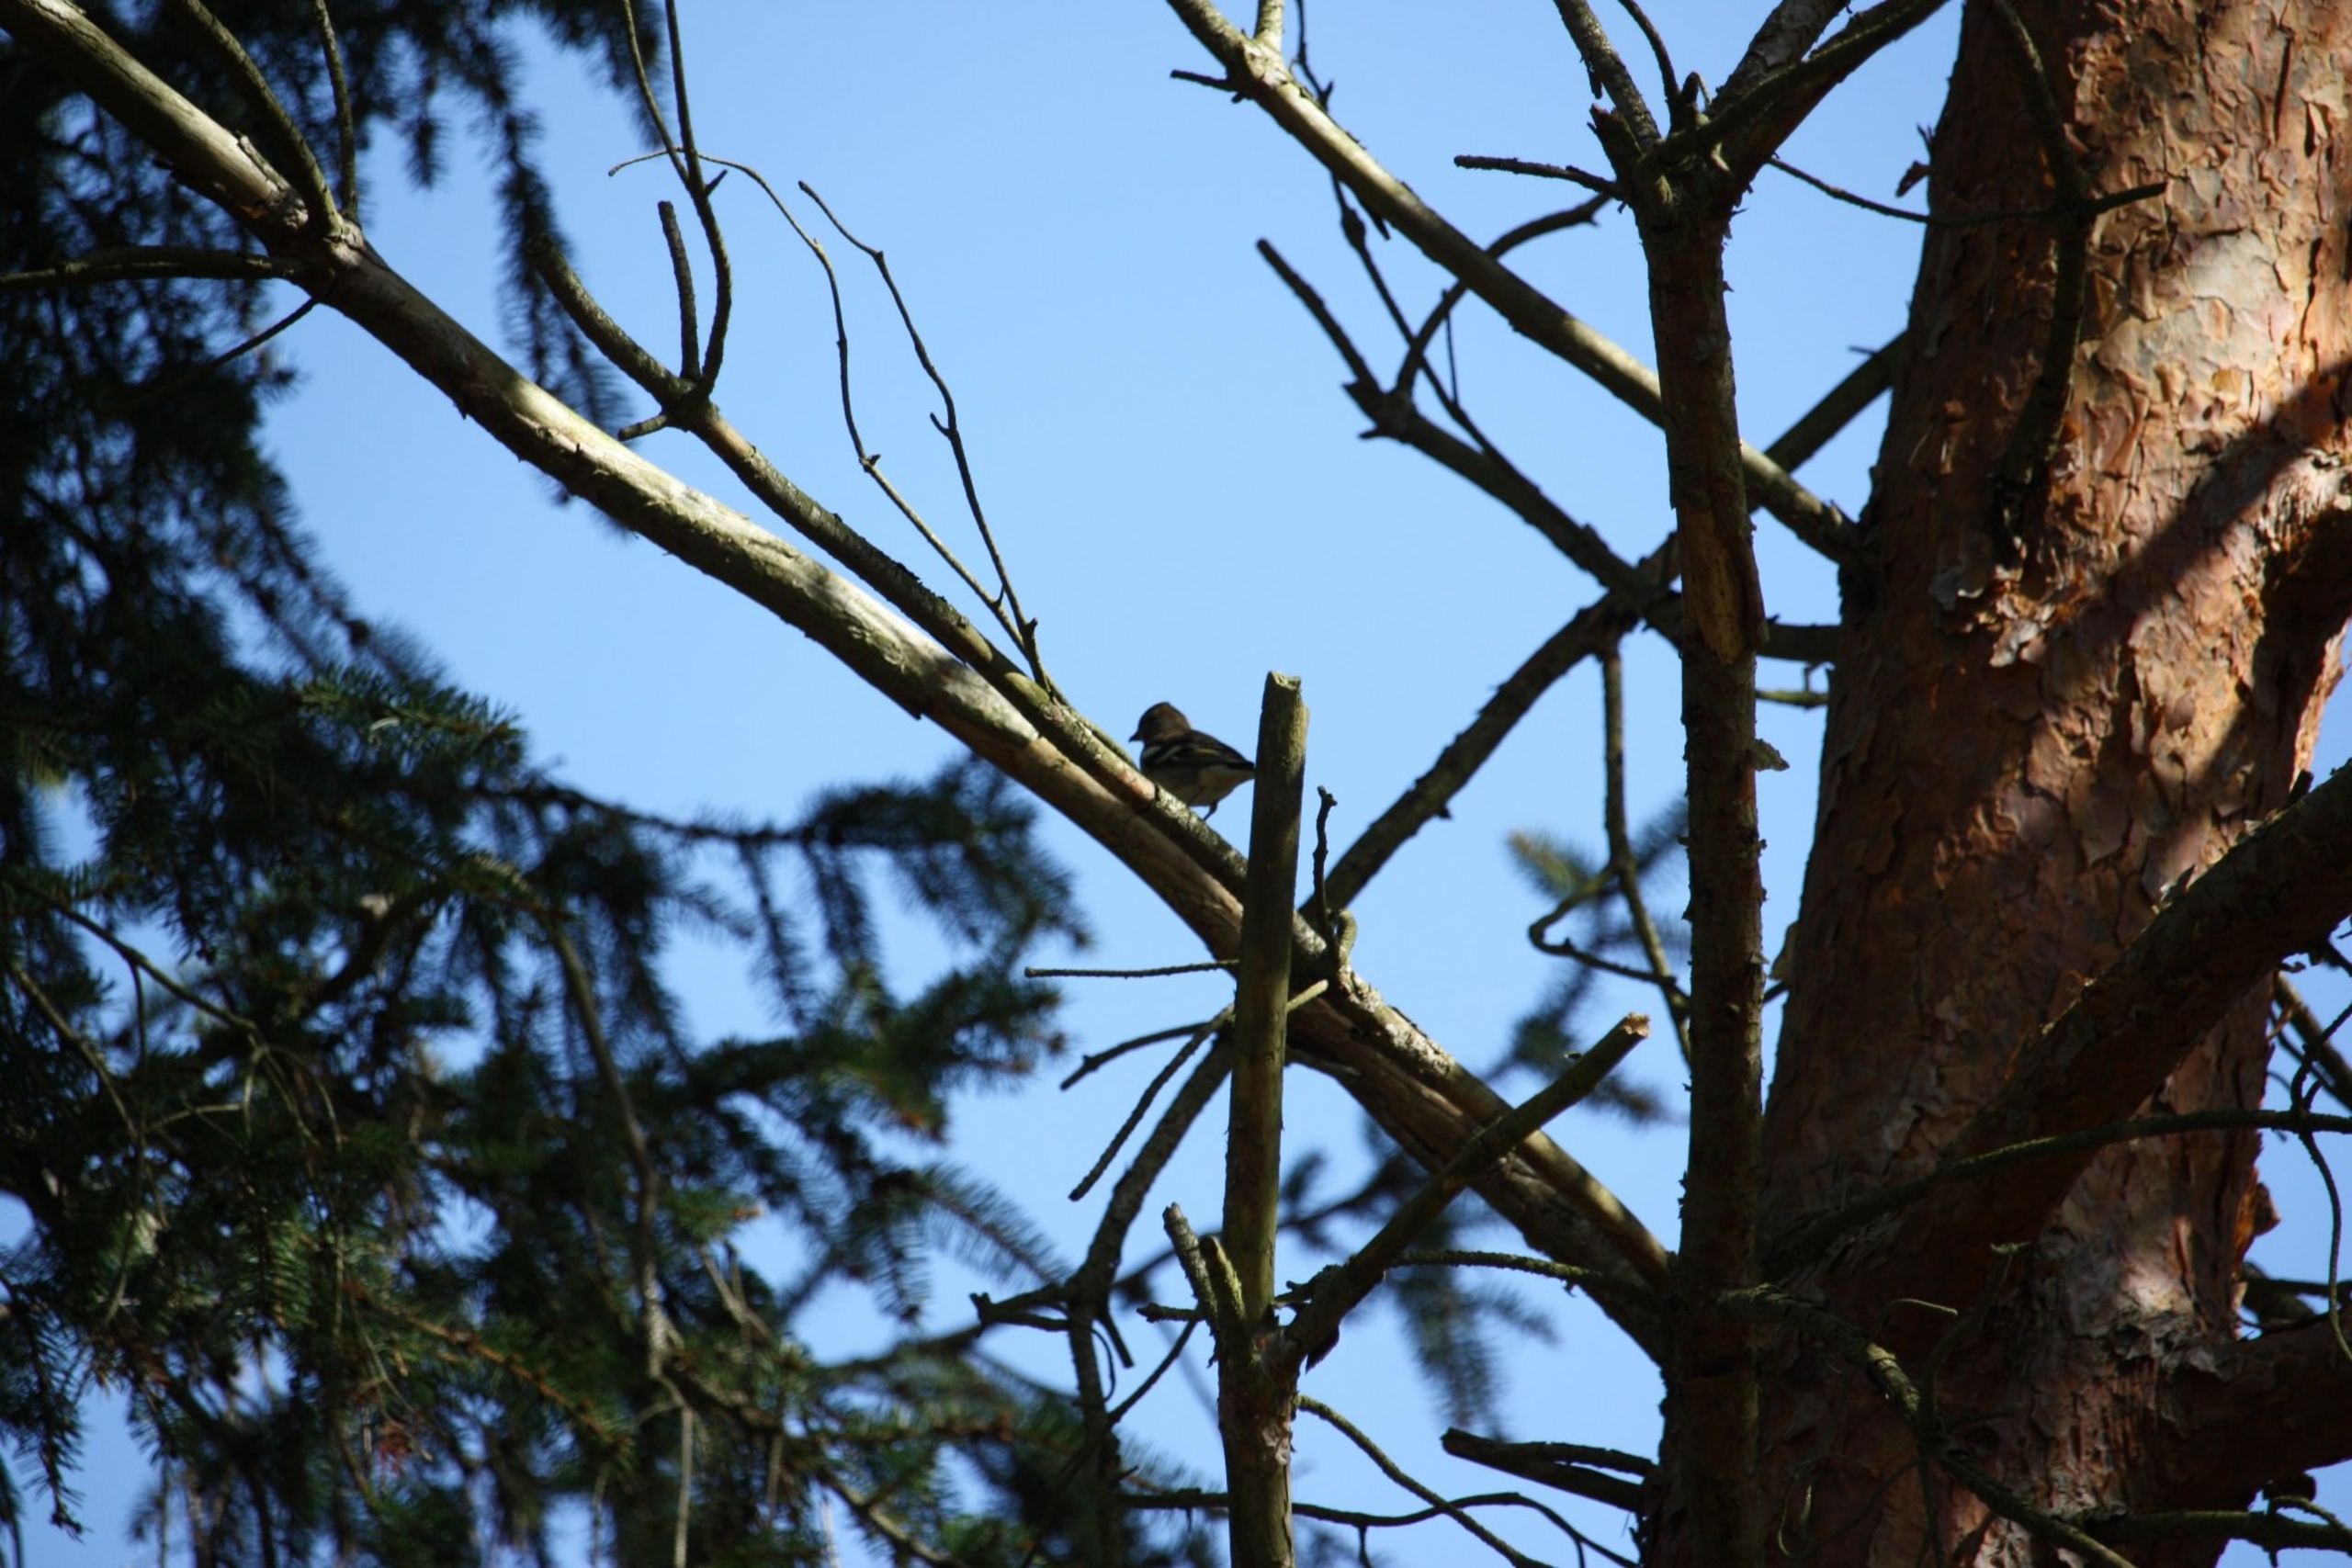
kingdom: Animalia
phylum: Chordata
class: Aves
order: Passeriformes
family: Fringillidae
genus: Fringilla
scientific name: Fringilla coelebs
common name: Bogfinke
